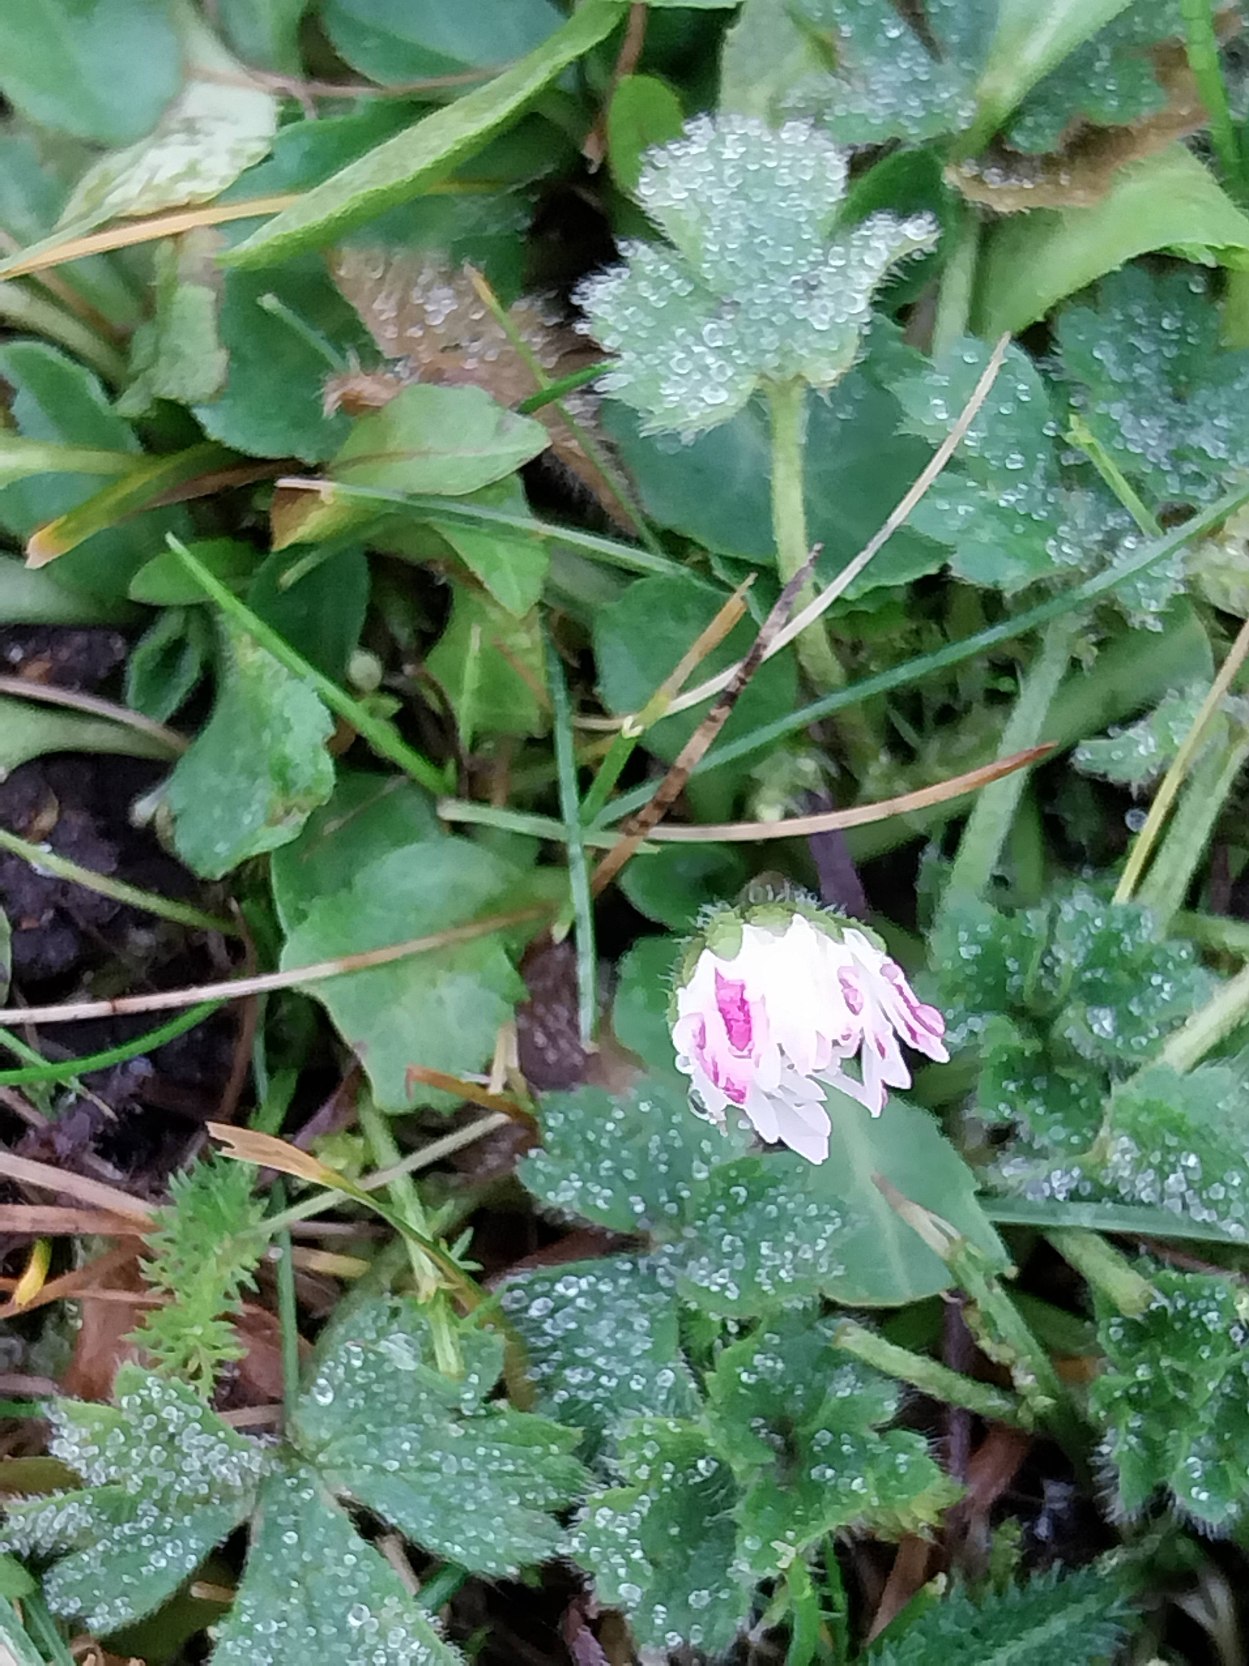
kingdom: Plantae
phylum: Tracheophyta
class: Magnoliopsida
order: Asterales
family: Asteraceae
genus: Bellis
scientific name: Bellis perennis
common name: Tusindfryd
